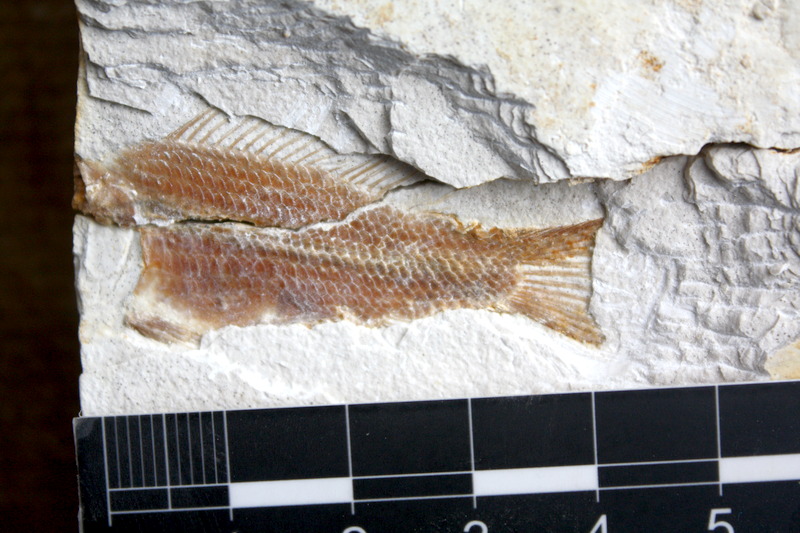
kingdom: Animalia
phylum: Chordata
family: Macrosemiidae
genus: Notagogus
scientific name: Notagogus denticulatus
